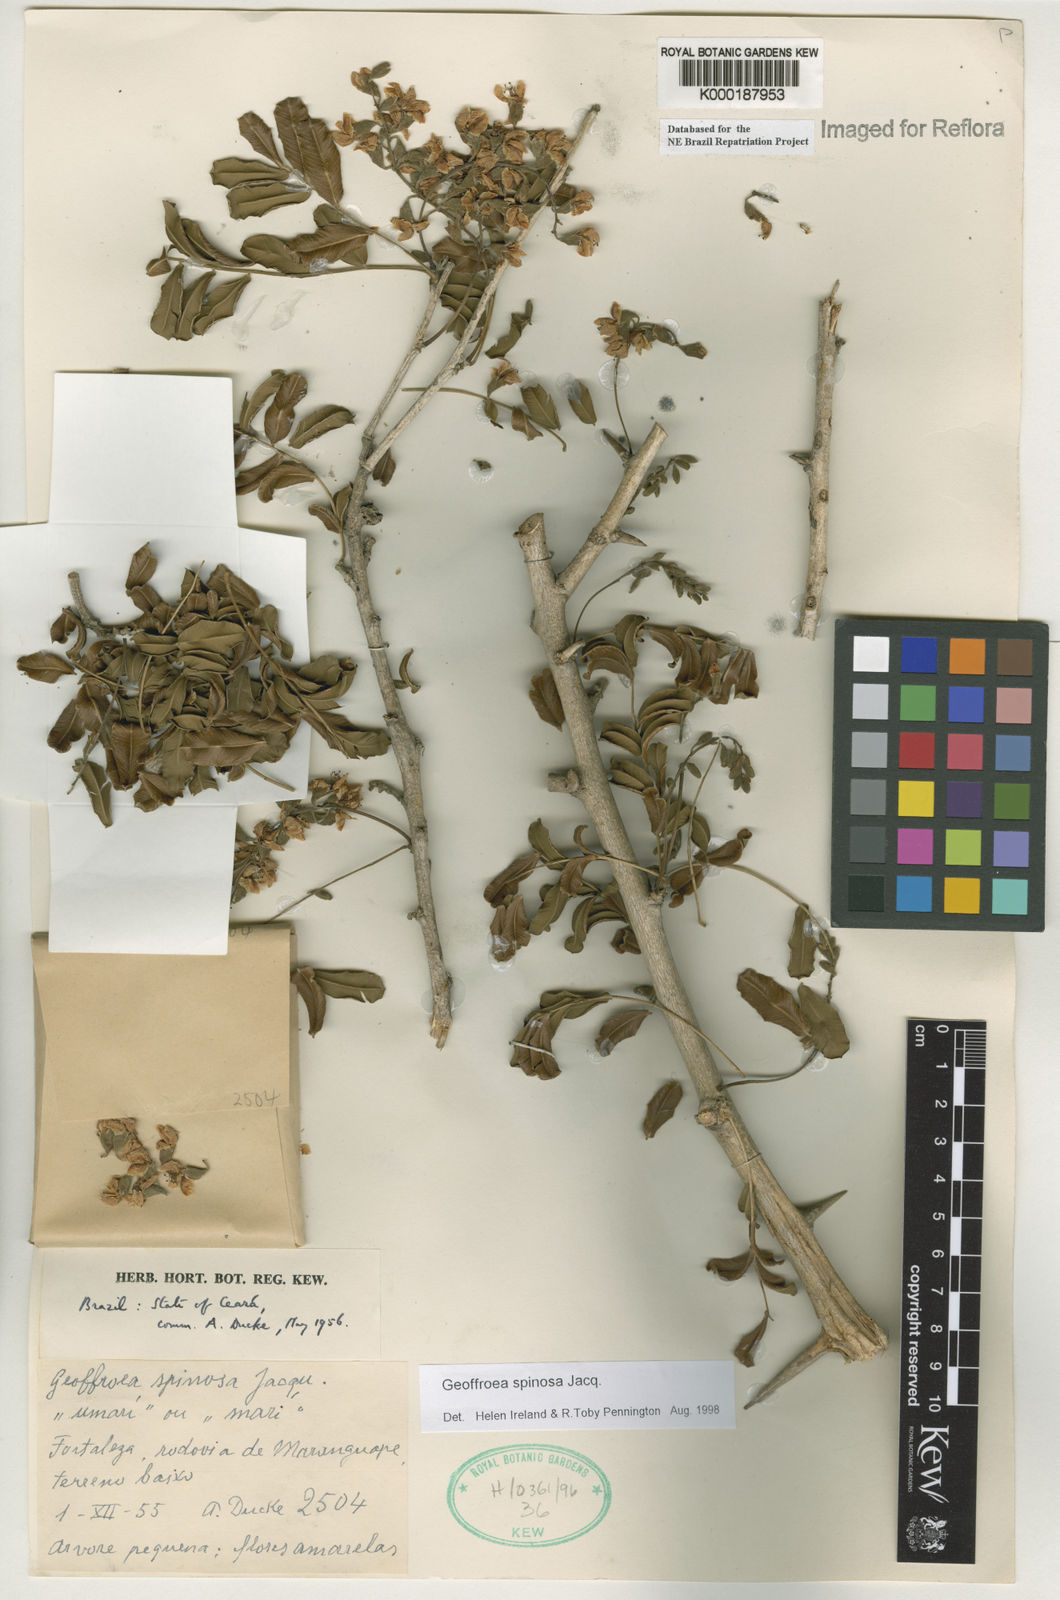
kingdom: Plantae
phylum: Tracheophyta
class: Magnoliopsida
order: Fabales
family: Fabaceae
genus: Geoffroea
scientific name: Geoffroea spinosa
